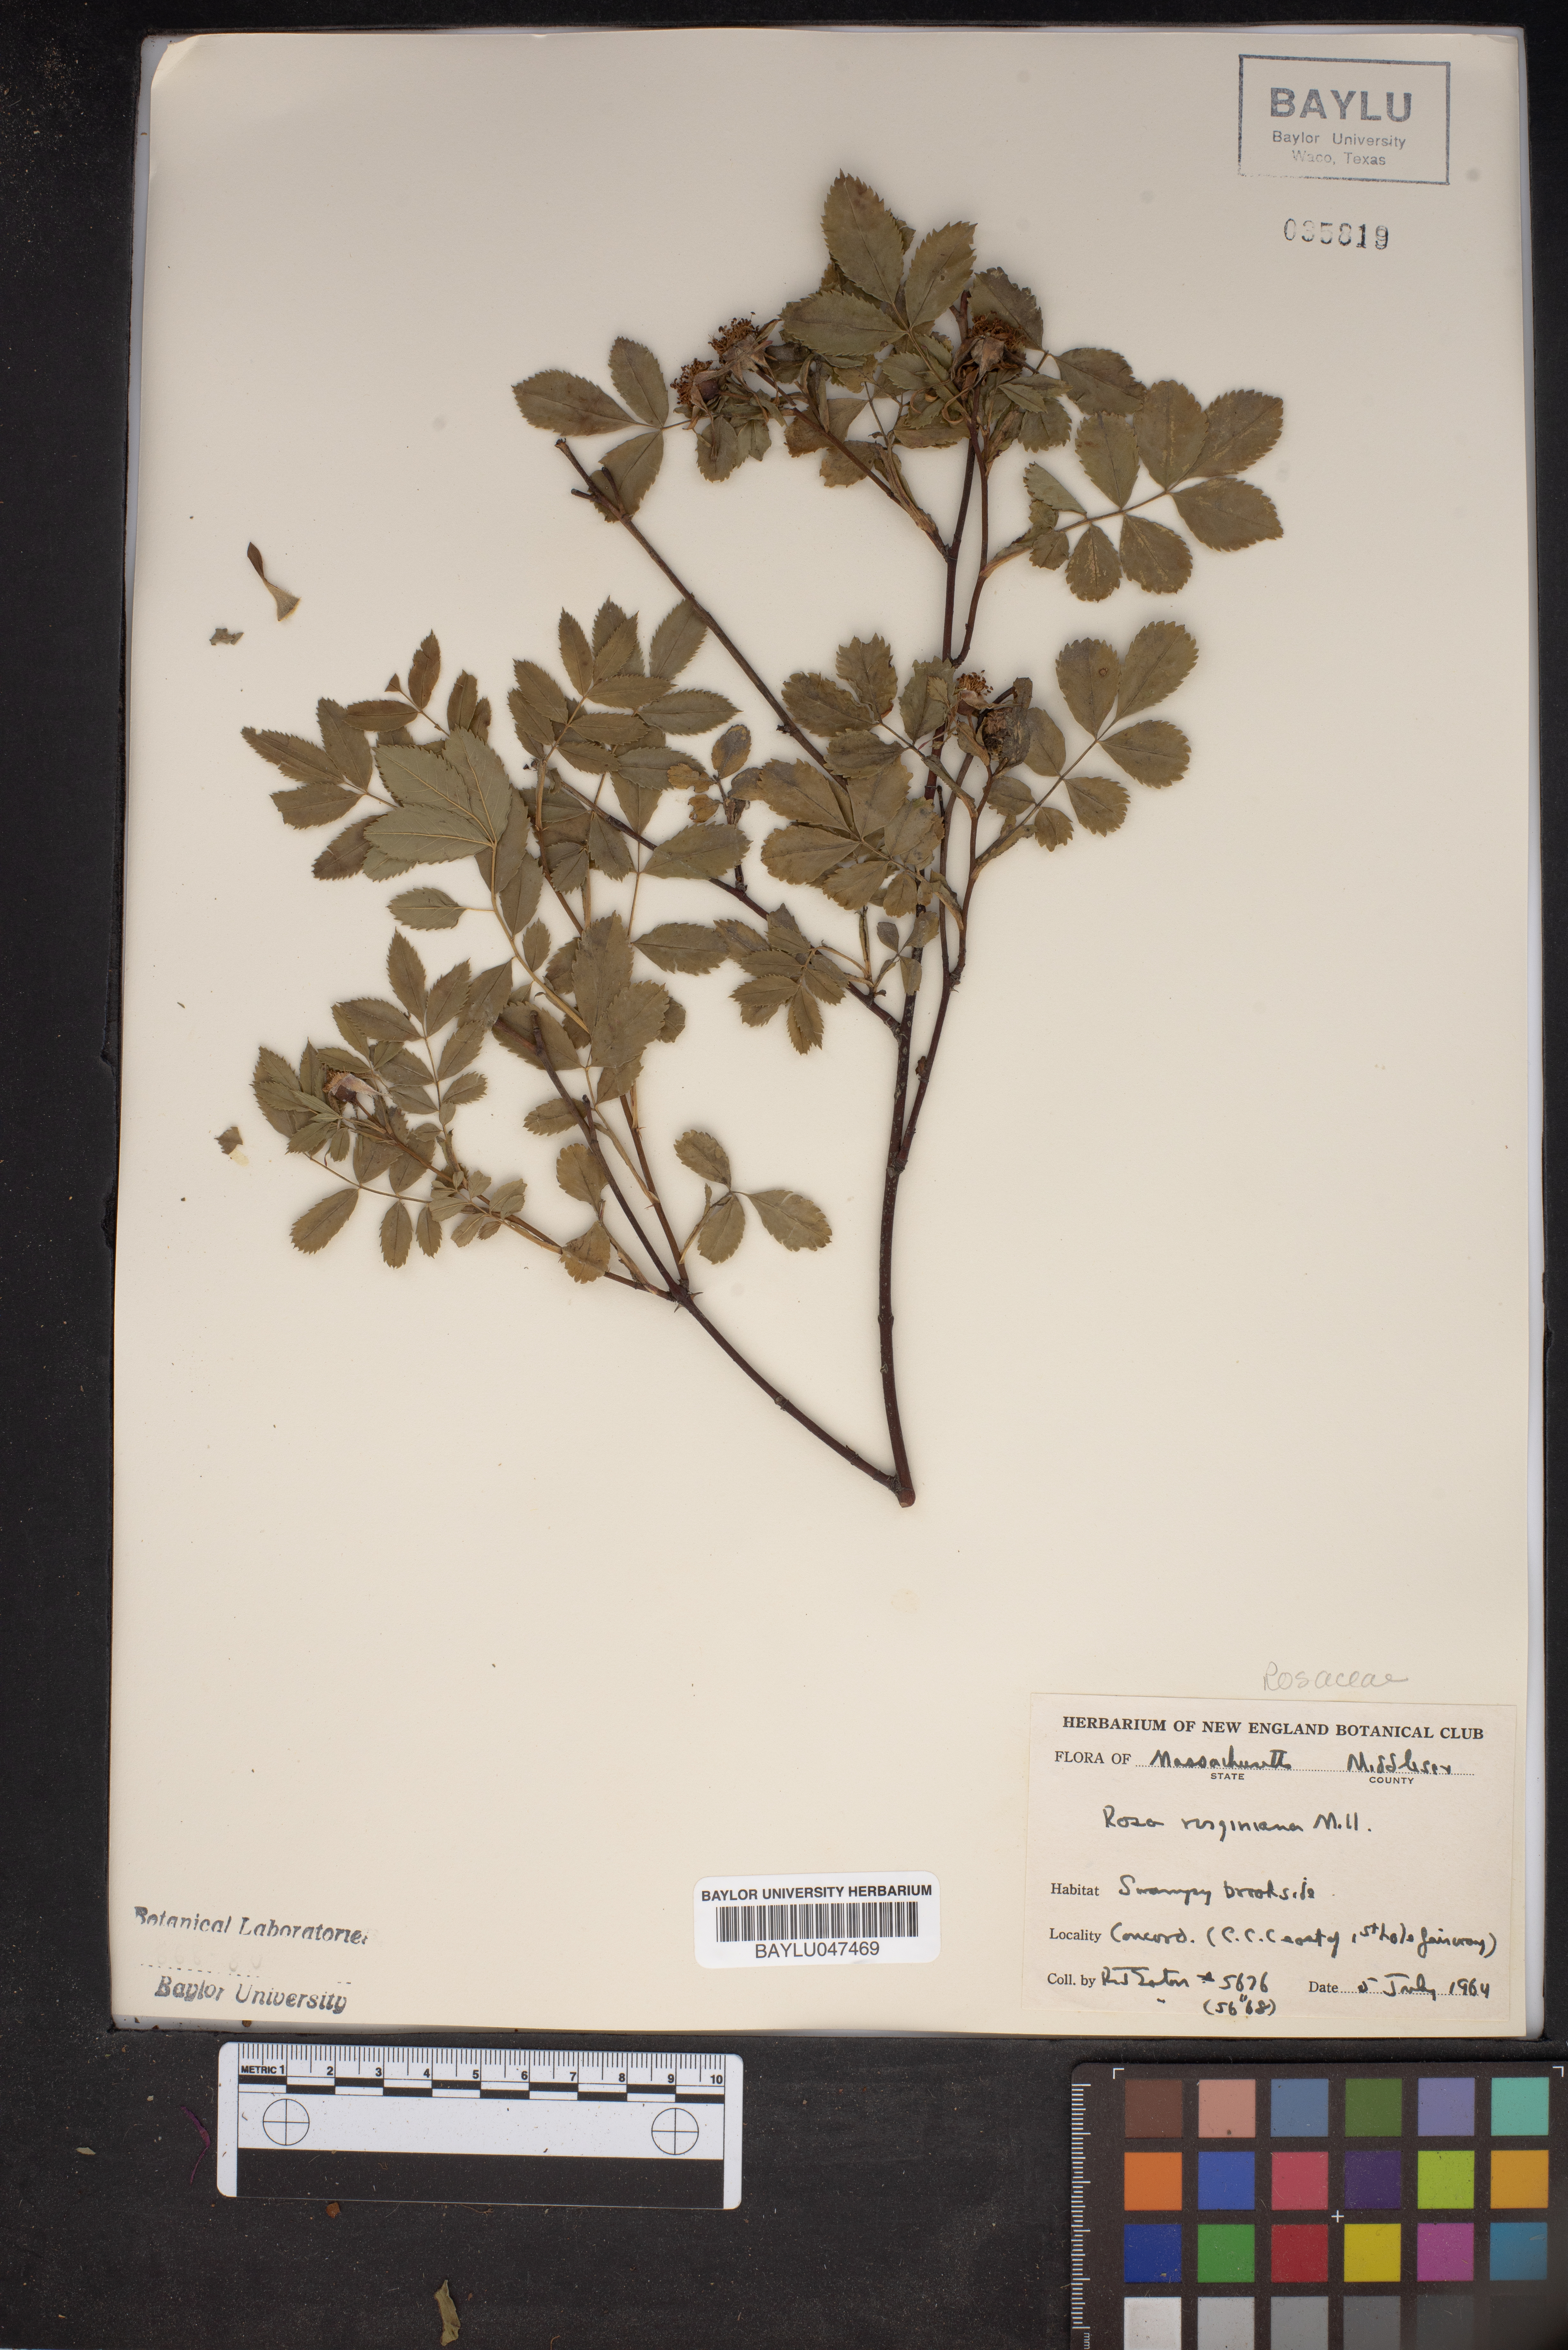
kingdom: Plantae
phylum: Tracheophyta
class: Magnoliopsida
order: Rosales
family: Rosaceae
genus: Rosa
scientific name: Rosa carolina
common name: Pasture rose
